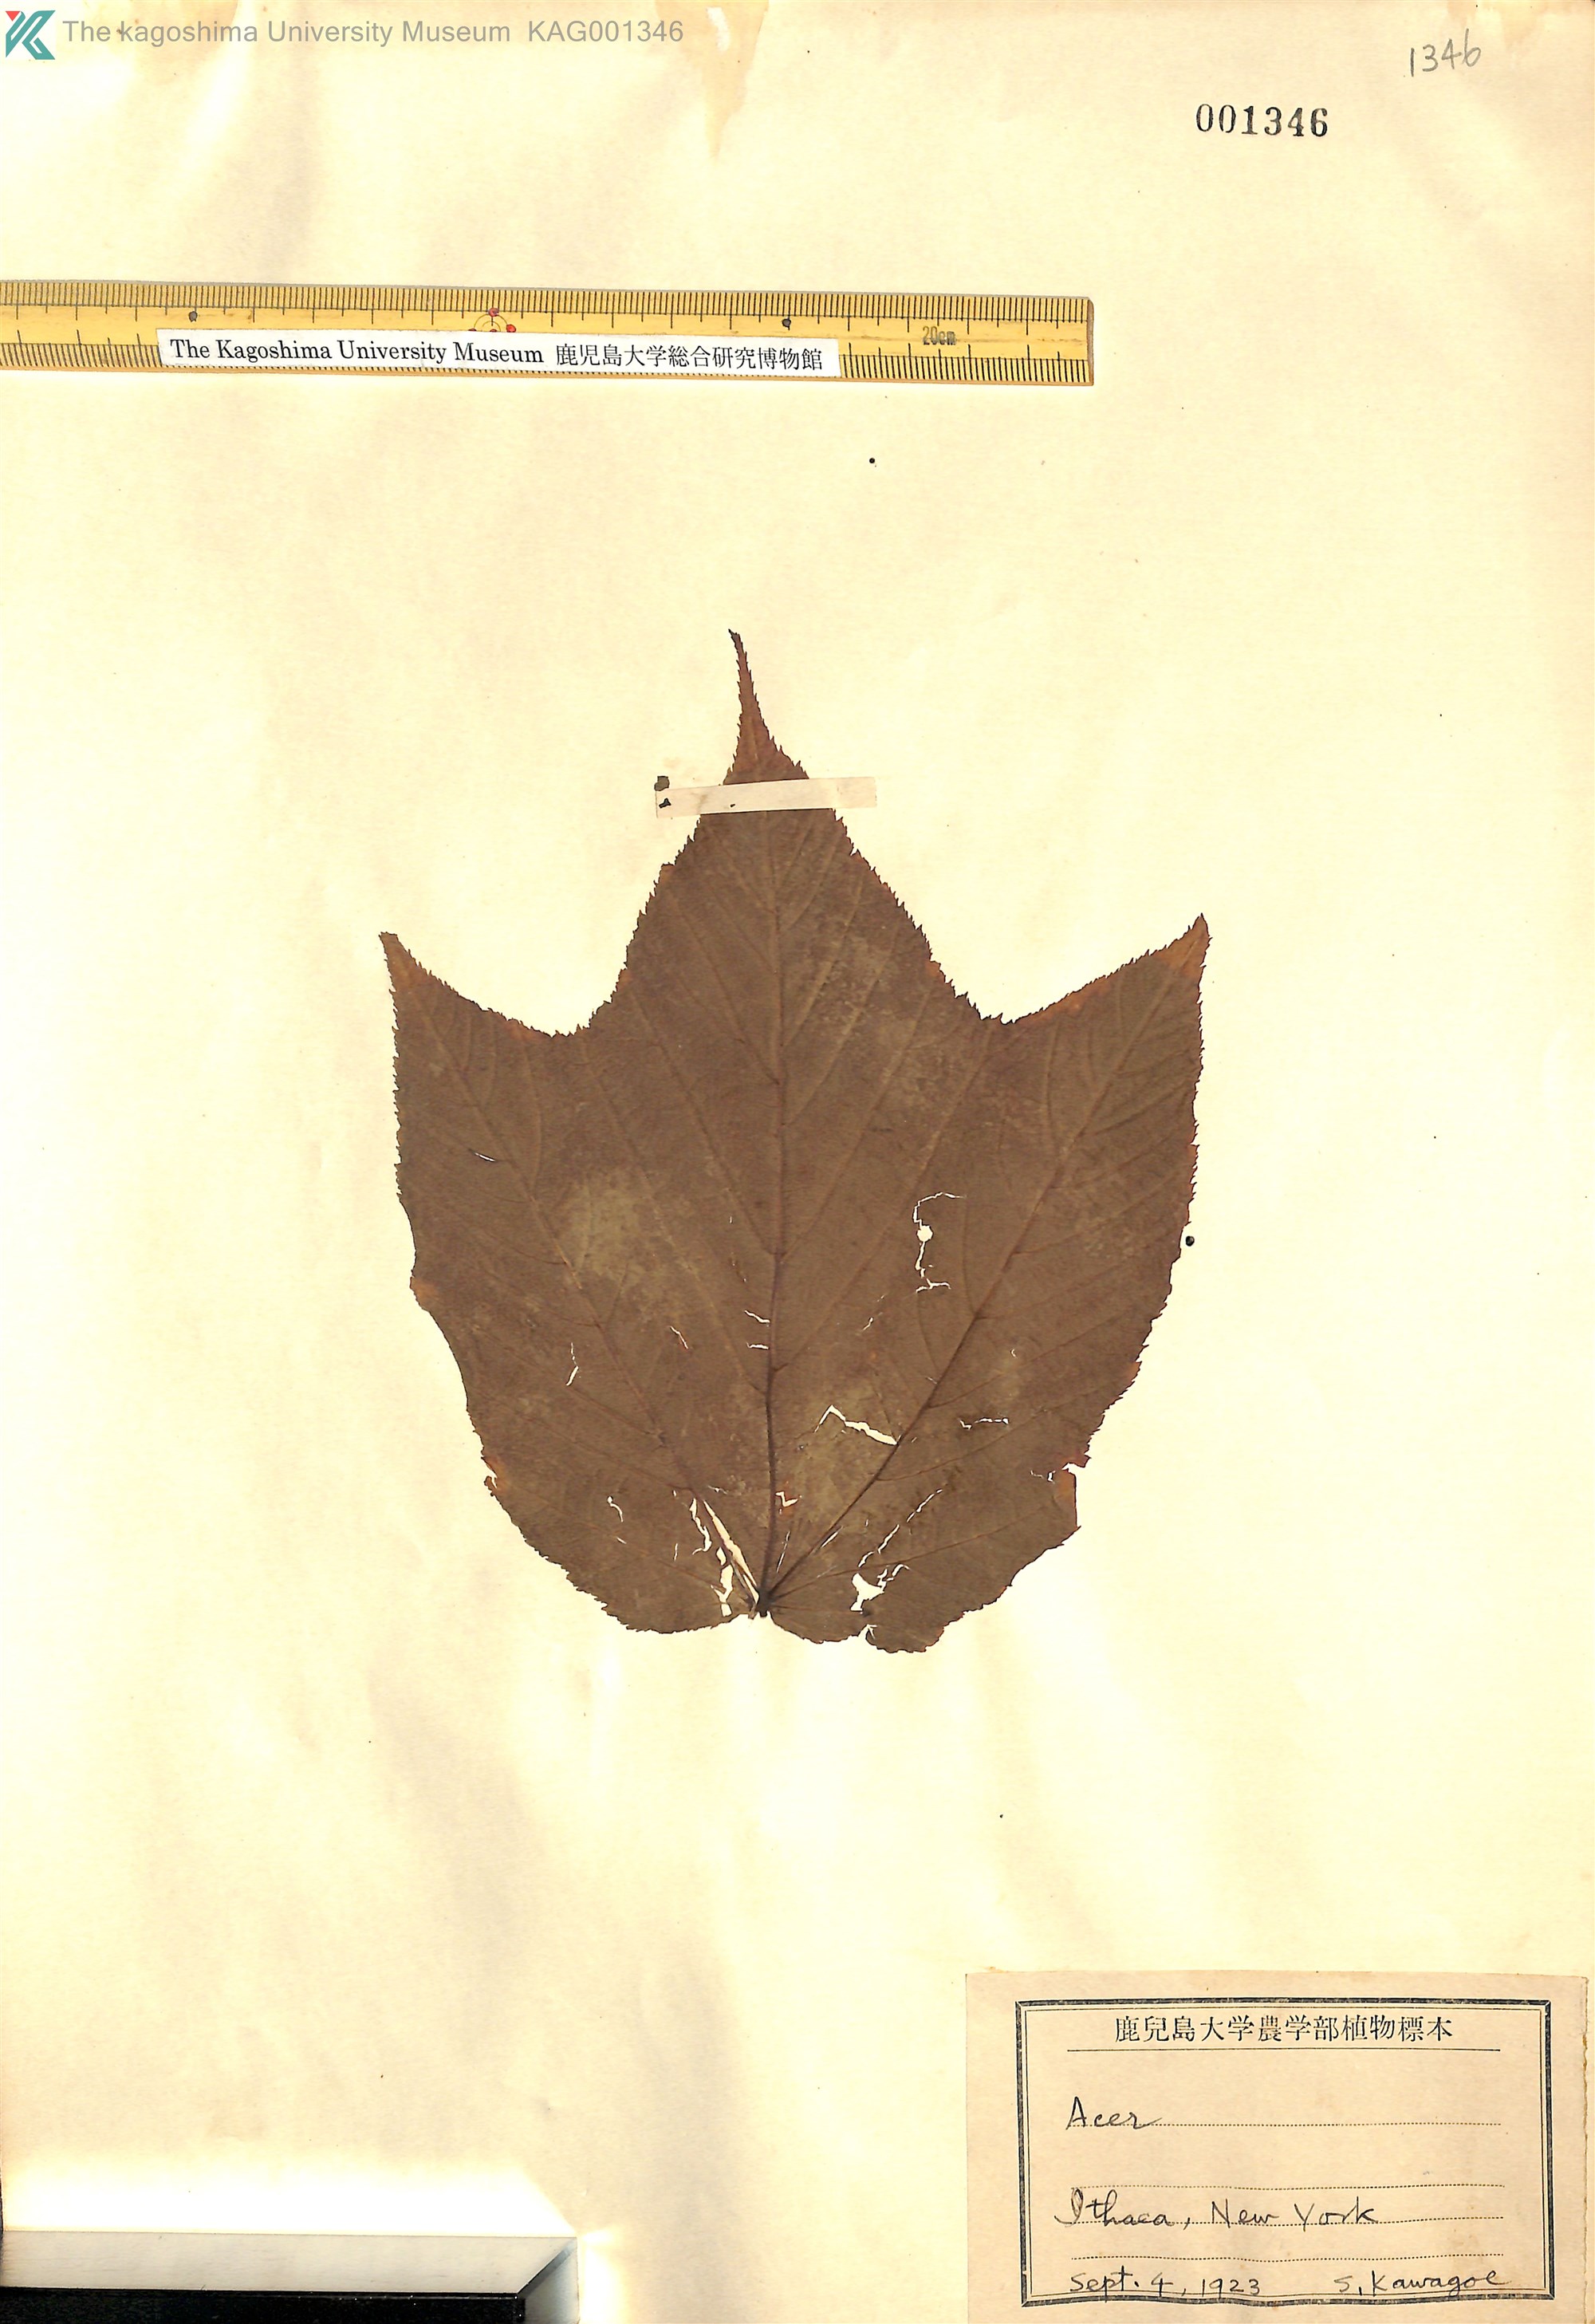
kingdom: Plantae
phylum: Tracheophyta
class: Magnoliopsida
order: Sapindales
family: Sapindaceae
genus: Acer
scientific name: Acer
